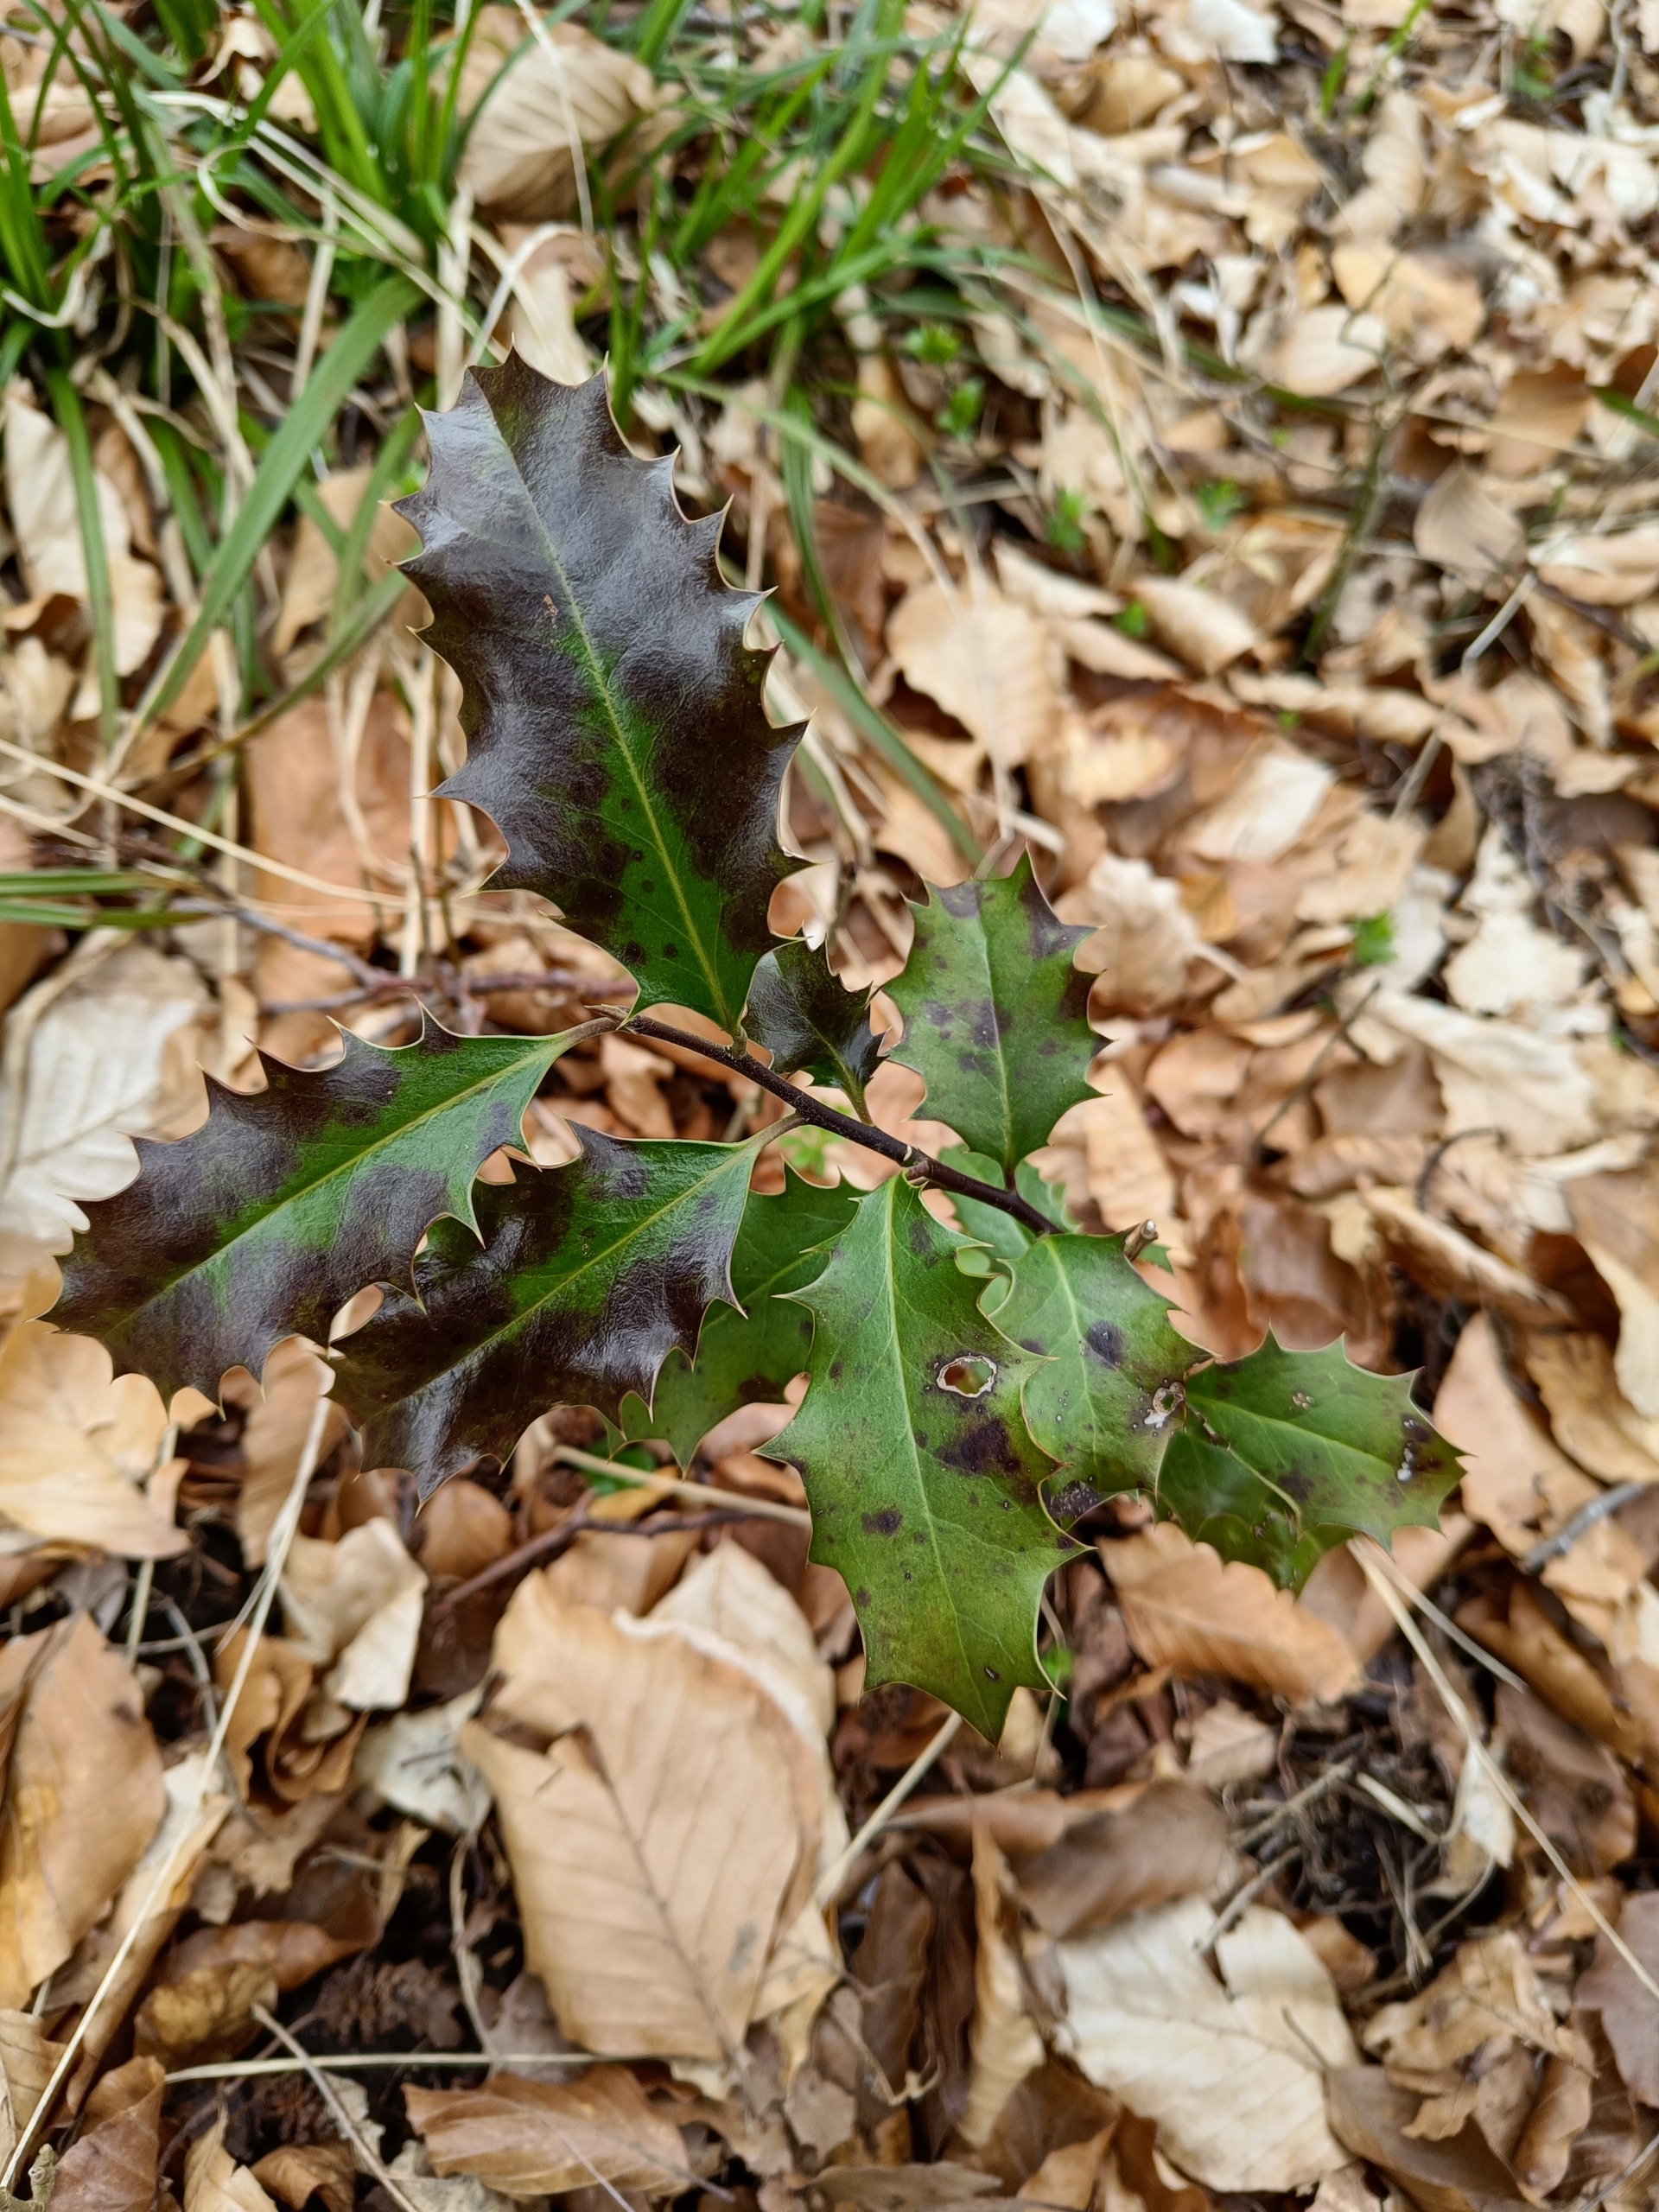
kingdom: Plantae
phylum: Tracheophyta
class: Magnoliopsida
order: Aquifoliales
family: Aquifoliaceae
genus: Ilex
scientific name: Ilex aquifolium
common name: Kristtorn
